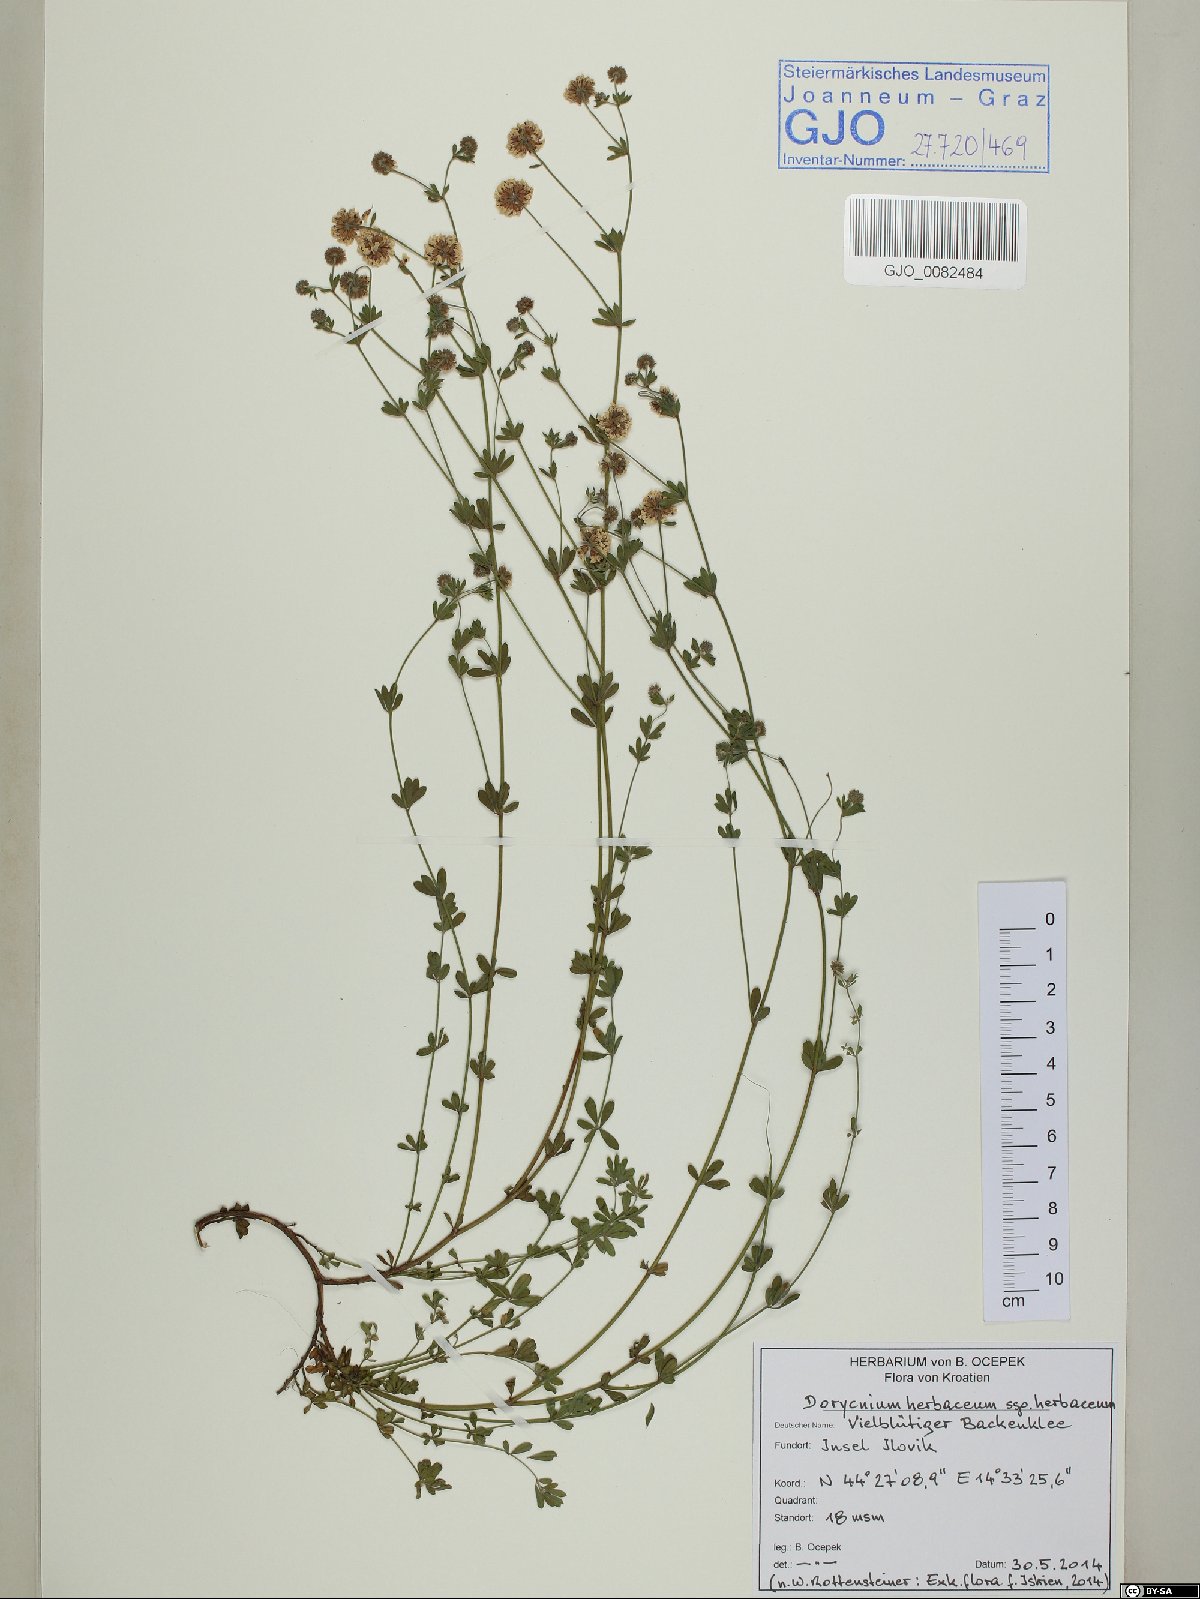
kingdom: Plantae
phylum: Tracheophyta
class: Magnoliopsida
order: Fabales
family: Fabaceae
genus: Lotus
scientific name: Lotus herbaceus
